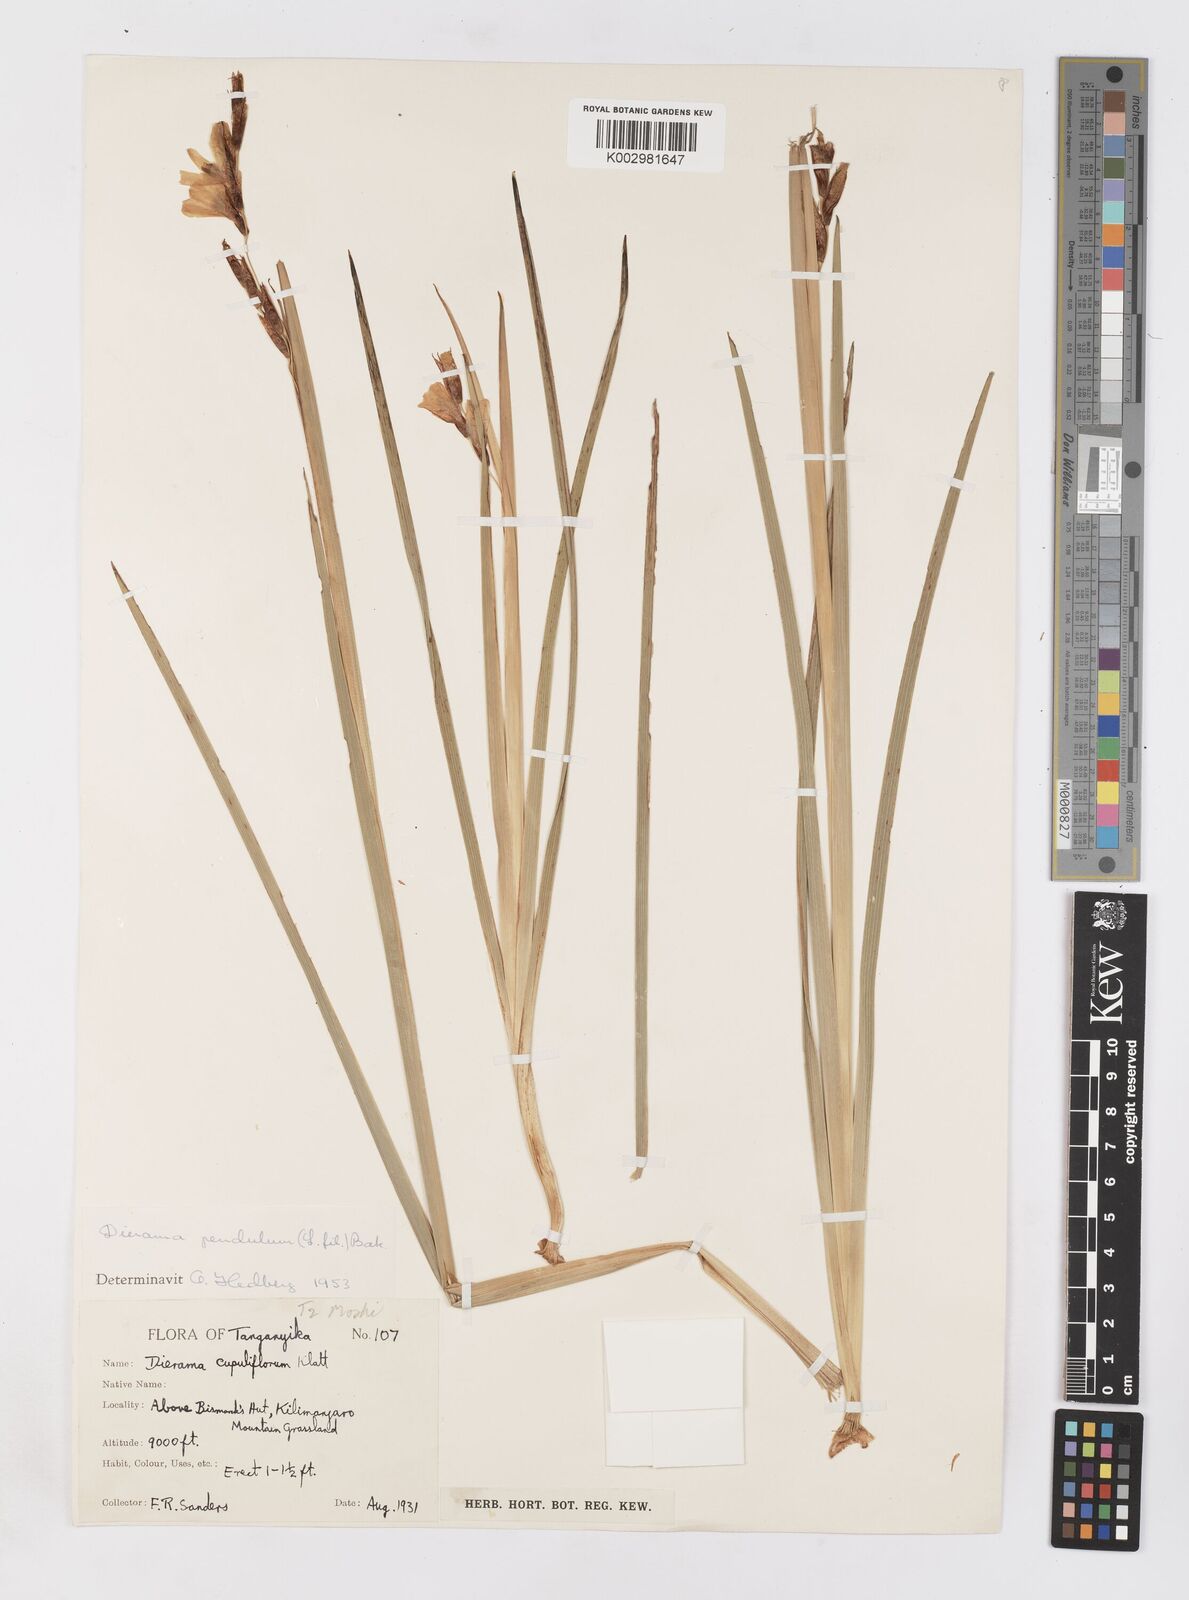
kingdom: Plantae
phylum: Tracheophyta
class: Liliopsida
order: Asparagales
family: Iridaceae
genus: Dierama
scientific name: Dierama cupuliflorum
